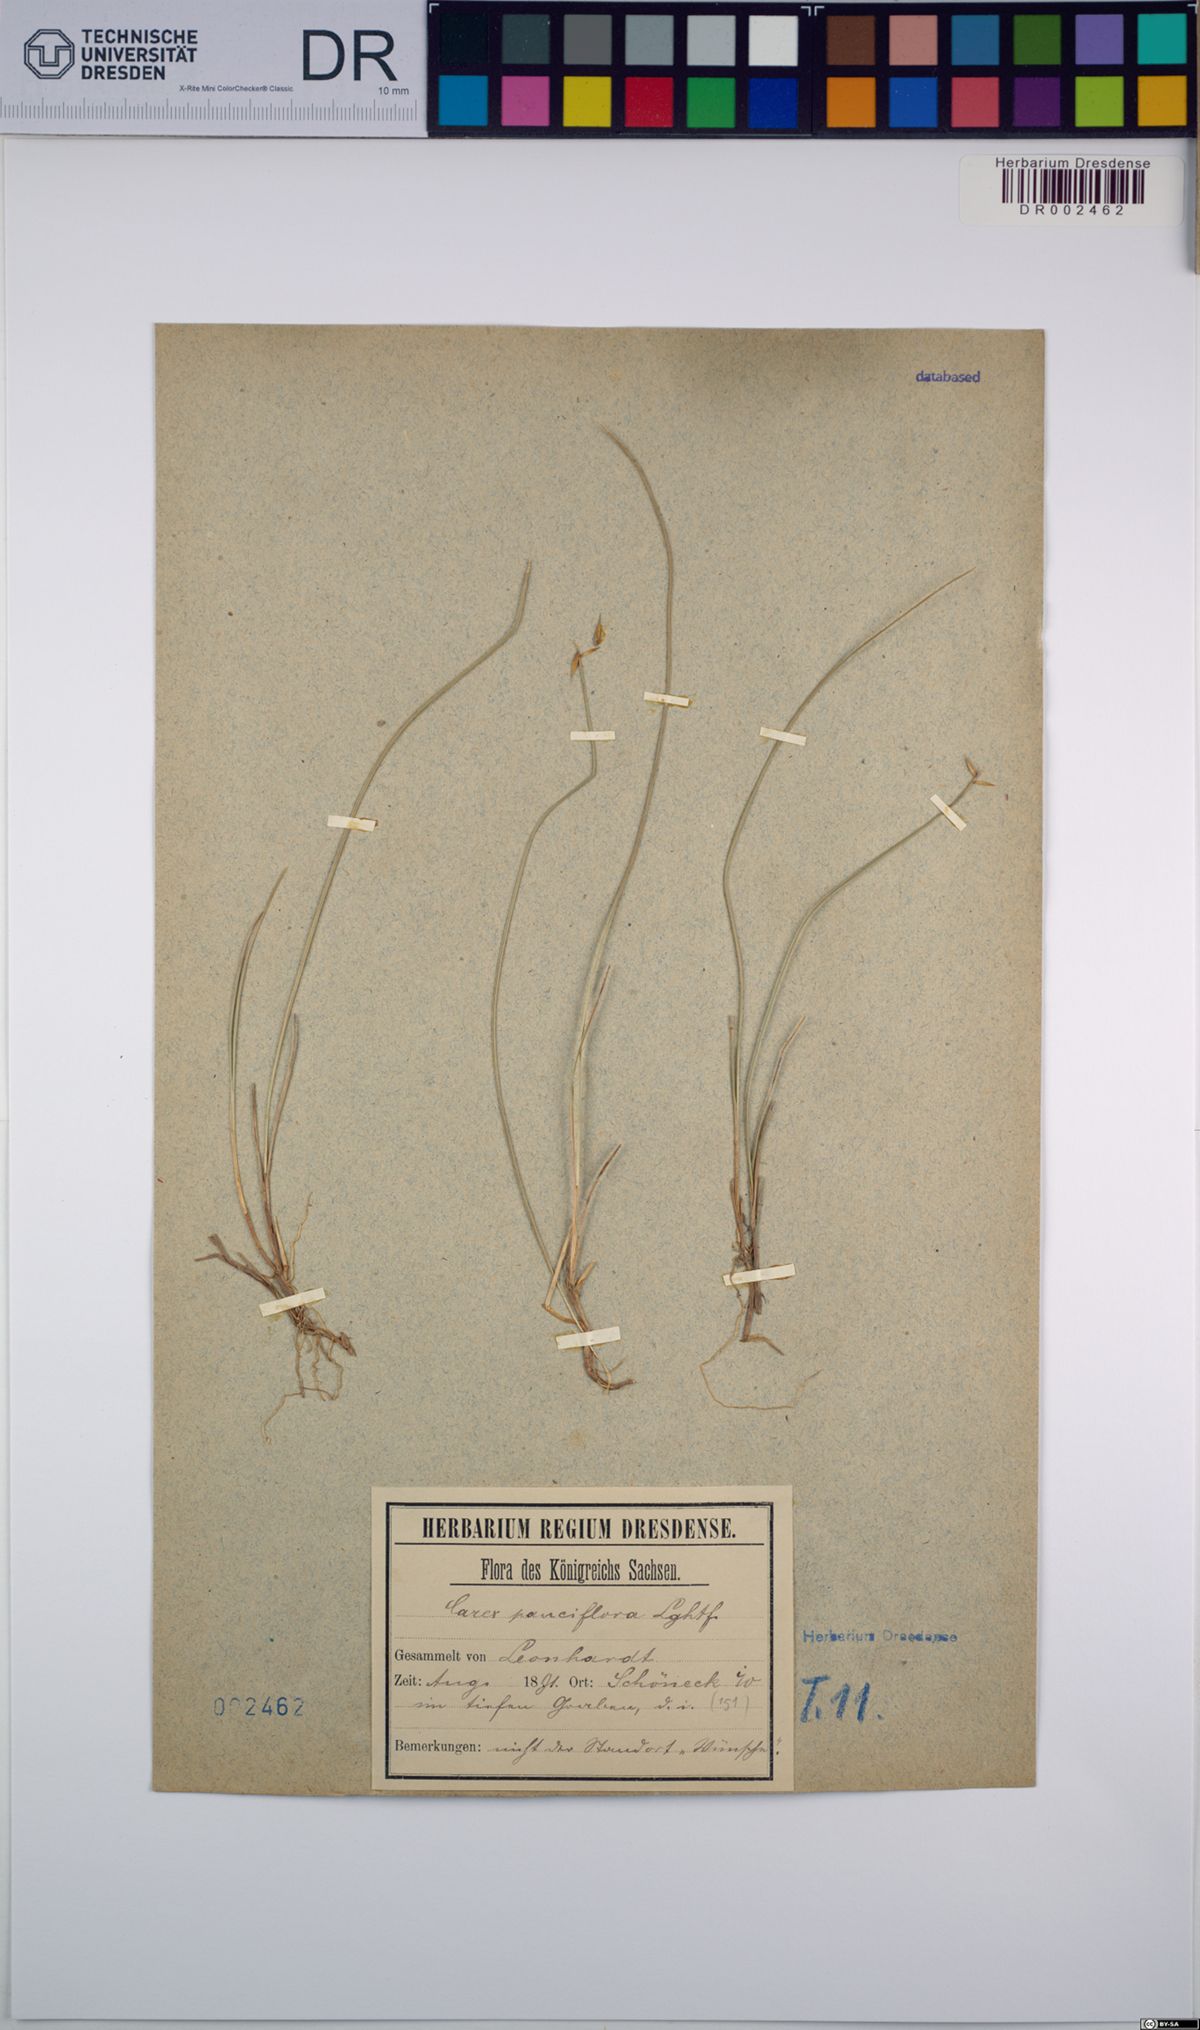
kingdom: Plantae
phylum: Tracheophyta
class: Liliopsida
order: Poales
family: Cyperaceae
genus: Carex
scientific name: Carex pauciflora
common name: Few-flowered sedge
